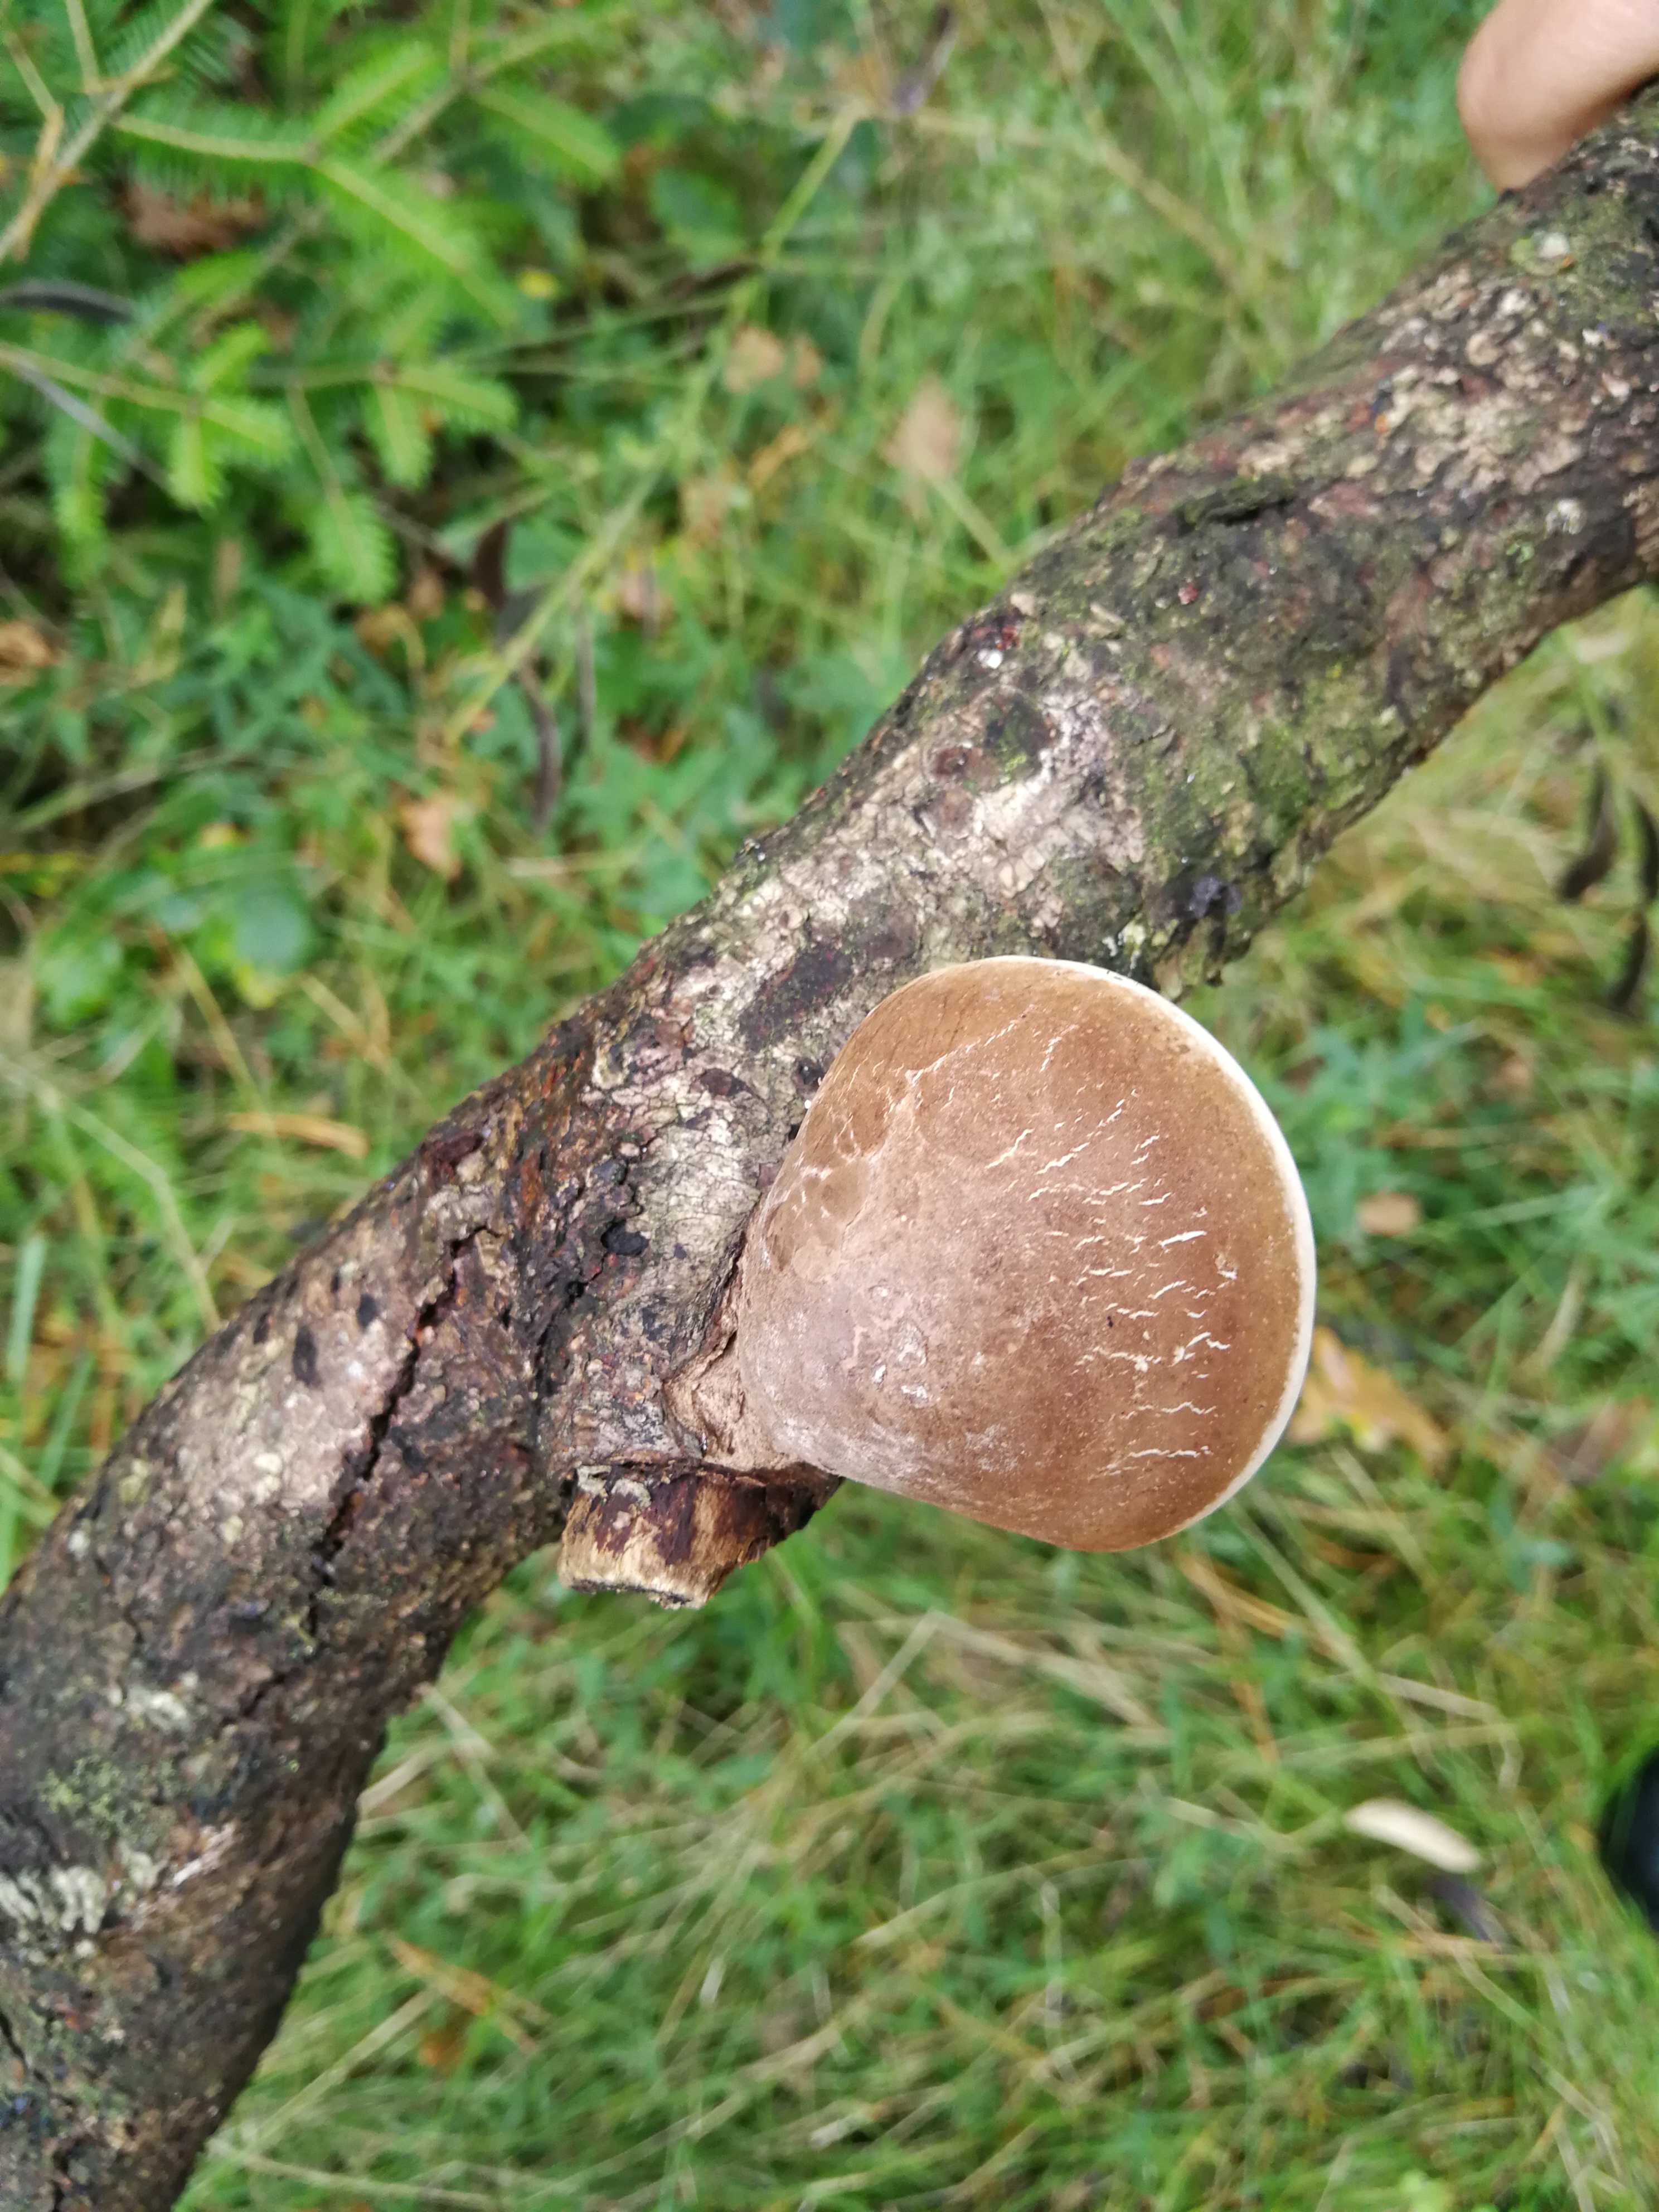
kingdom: Fungi
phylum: Basidiomycota
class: Agaricomycetes
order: Polyporales
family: Fomitopsidaceae
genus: Fomitopsis
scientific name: Fomitopsis betulina
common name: birkeporesvamp
